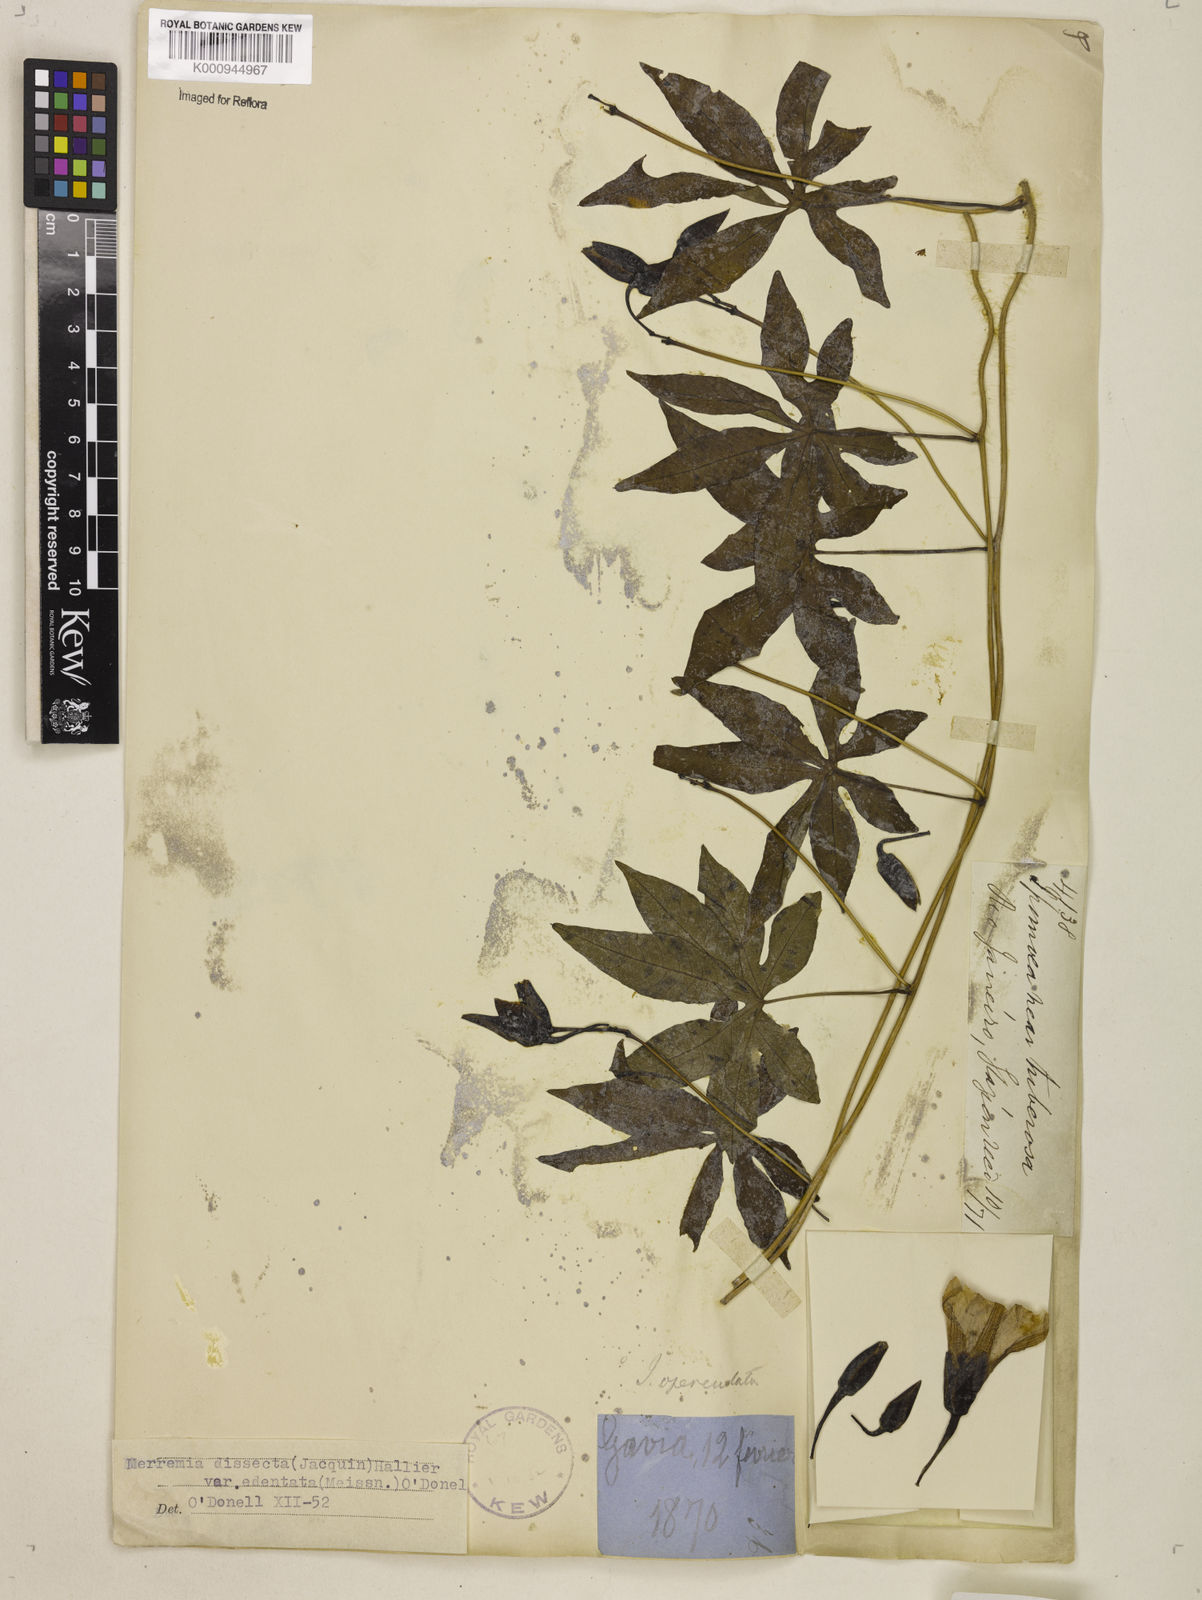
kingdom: Plantae
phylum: Tracheophyta
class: Magnoliopsida
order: Solanales
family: Convolvulaceae
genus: Distimake
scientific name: Distimake dissectus
